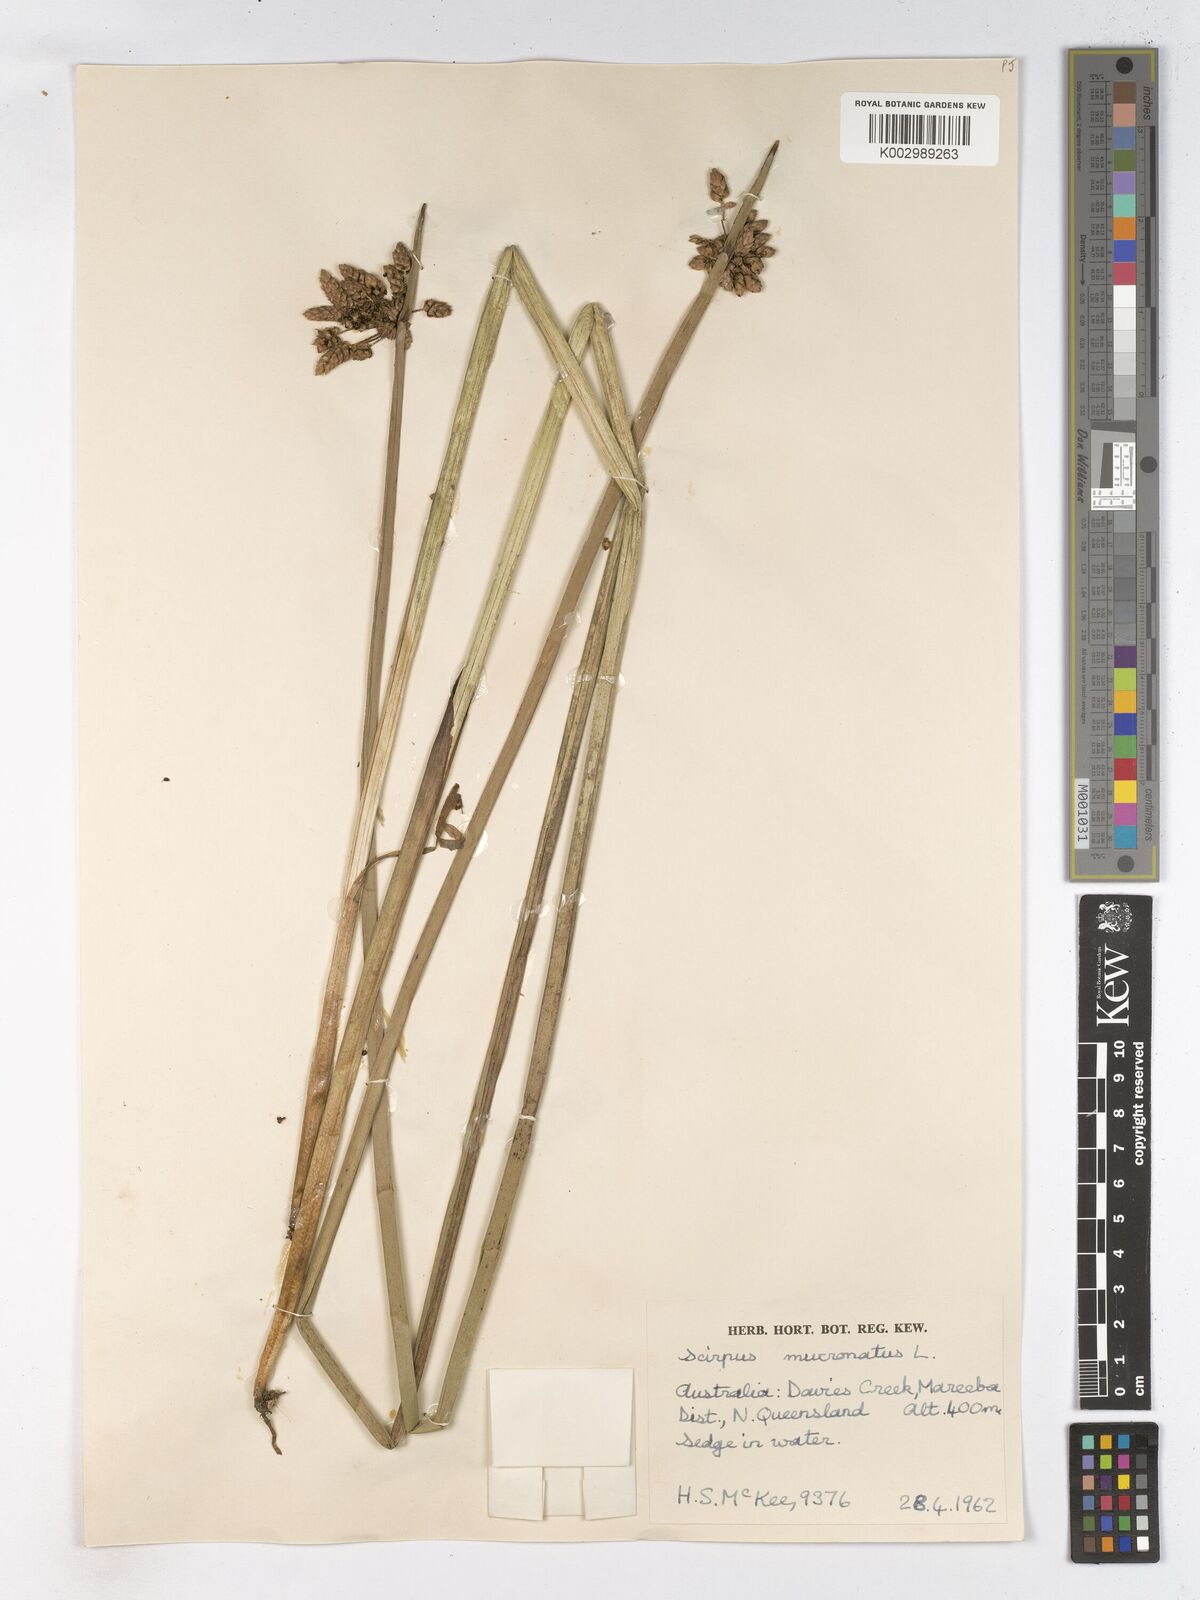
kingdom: Plantae
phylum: Tracheophyta
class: Liliopsida
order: Poales
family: Cyperaceae
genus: Schoenoplectiella
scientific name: Schoenoplectiella mucronata
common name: Bog bulrush
